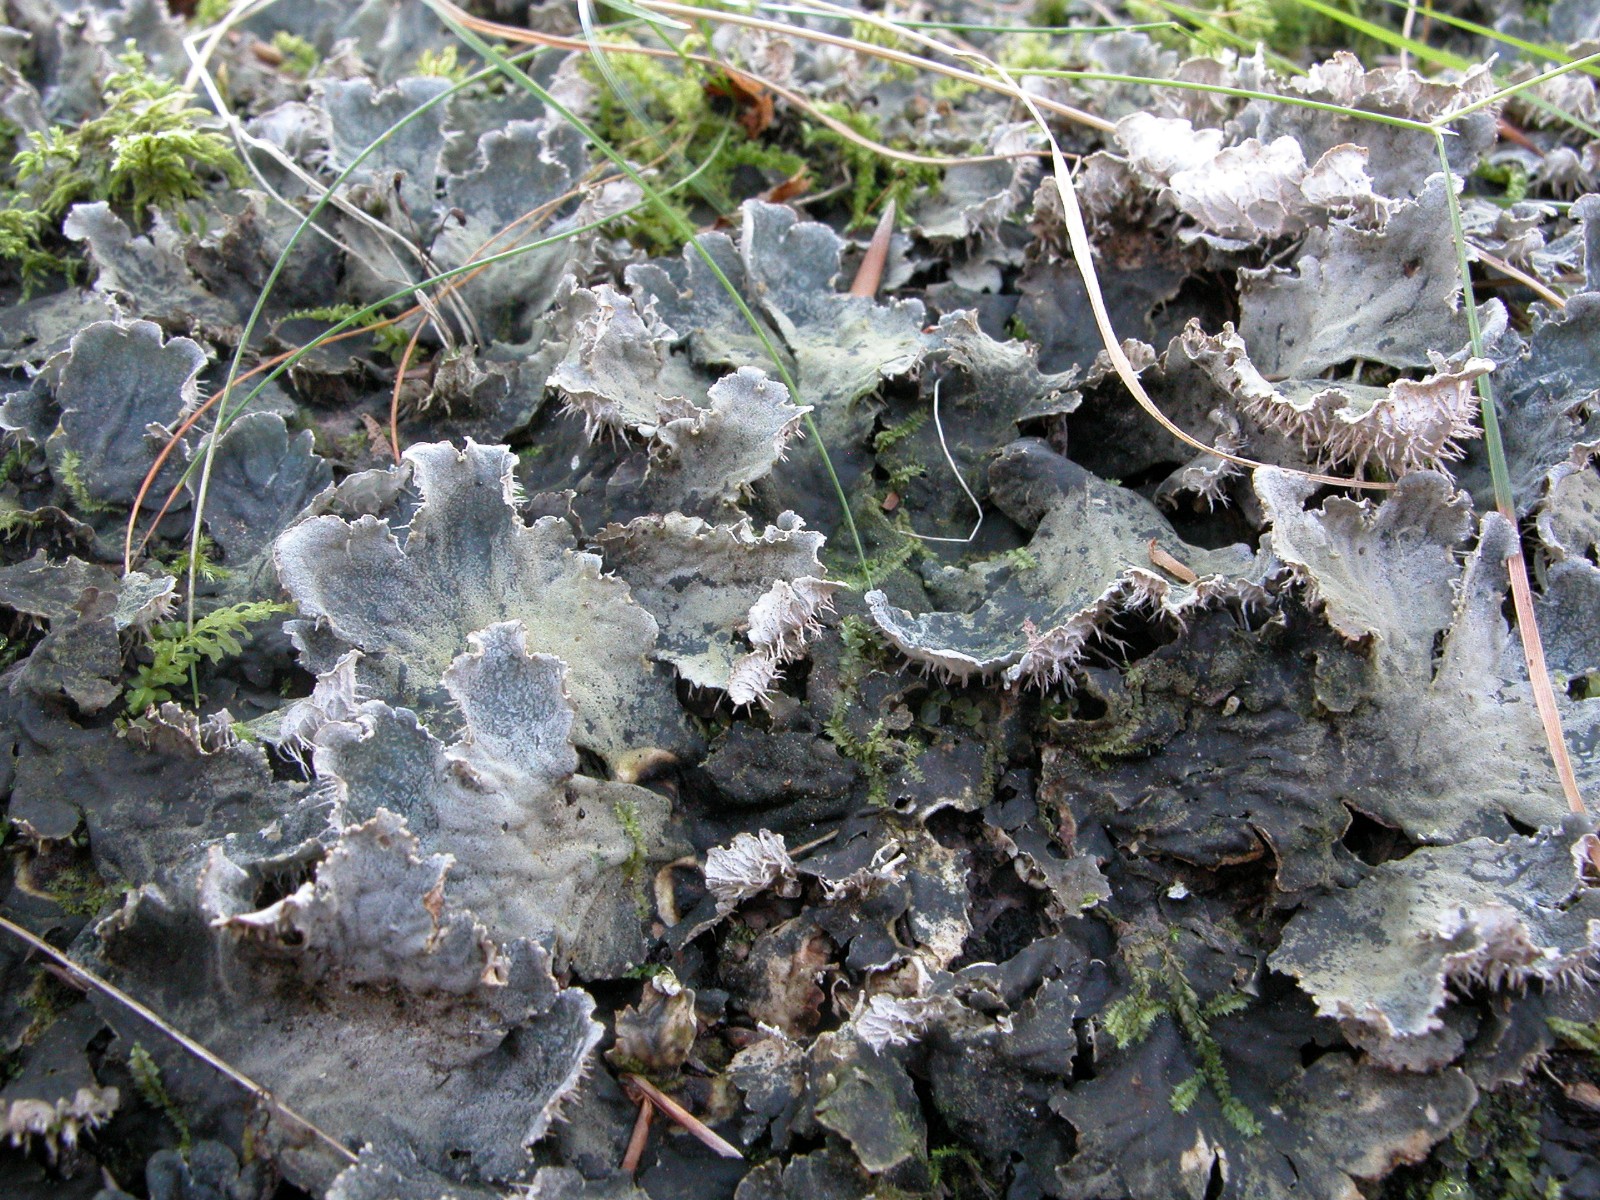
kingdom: Fungi
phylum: Ascomycota
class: Lecanoromycetes
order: Peltigerales
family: Peltigeraceae
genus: Peltigera
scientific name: Peltigera membranacea
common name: tynd skjoldlav
